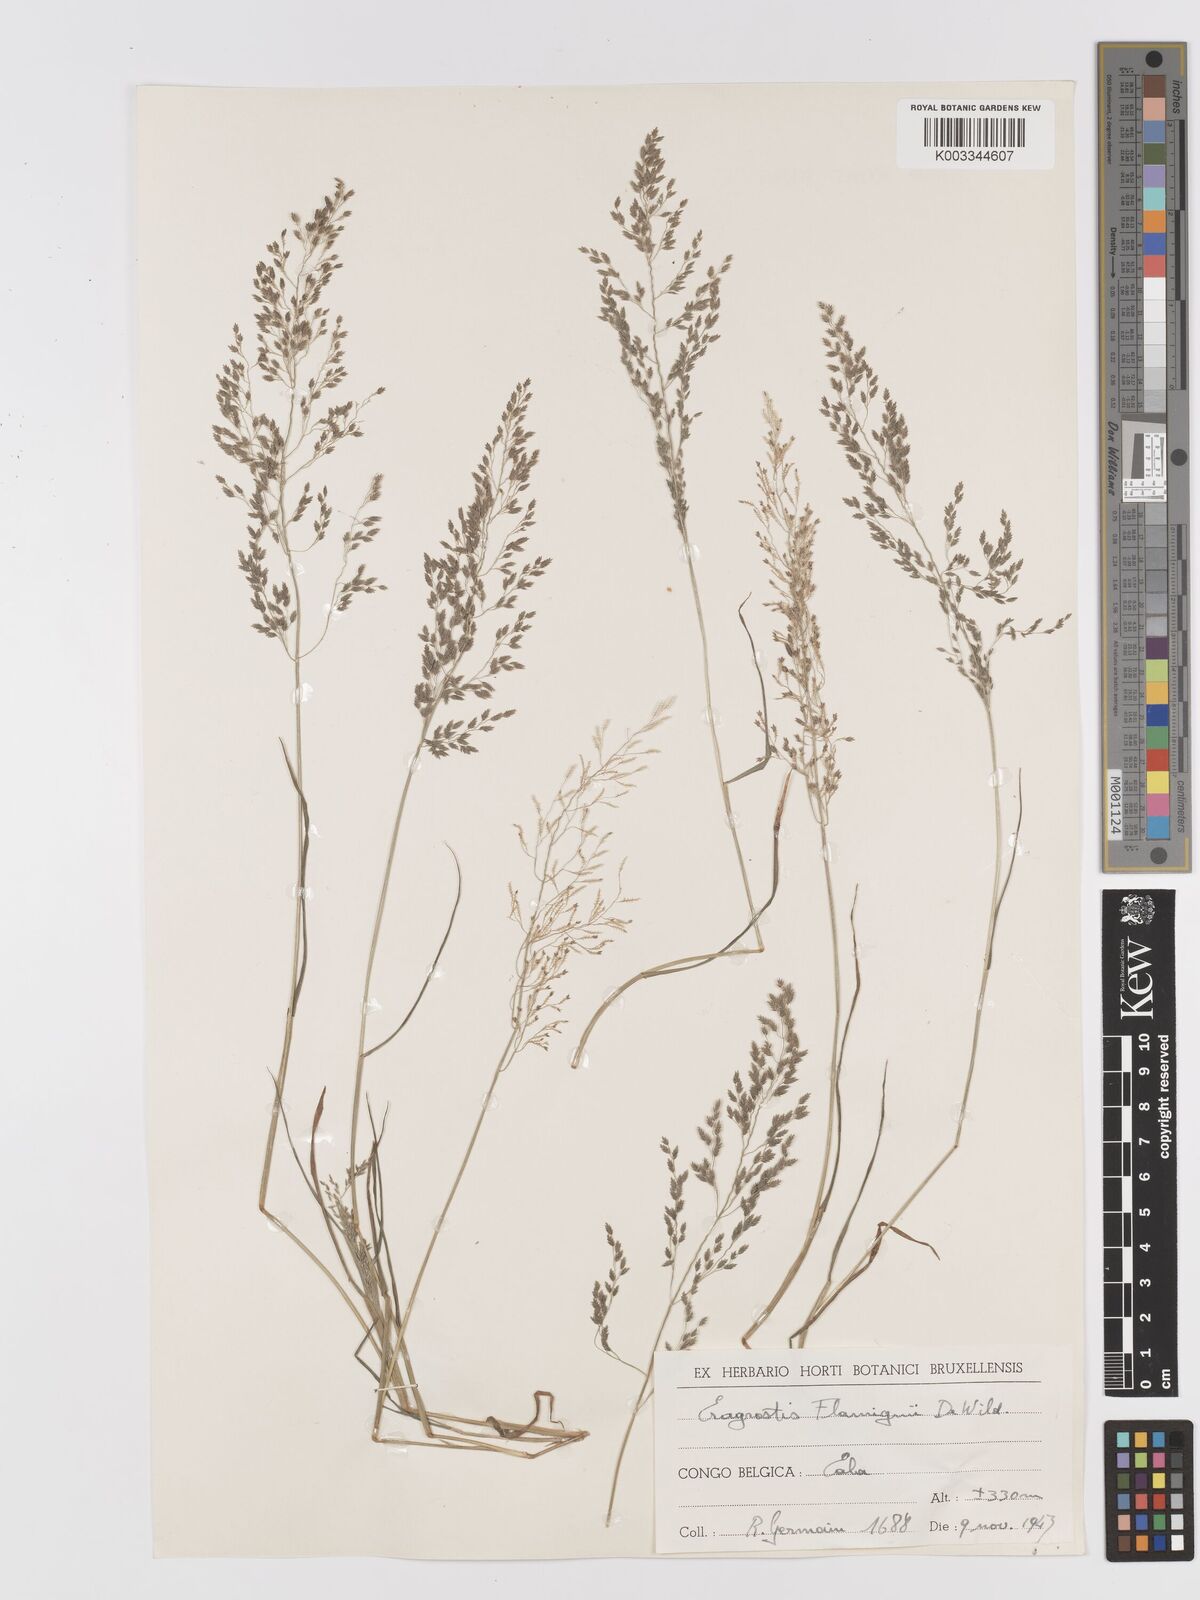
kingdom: Plantae
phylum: Tracheophyta
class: Liliopsida
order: Poales
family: Poaceae
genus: Eragrostis
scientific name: Eragrostis gangetica
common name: Slimflower lovegrass
